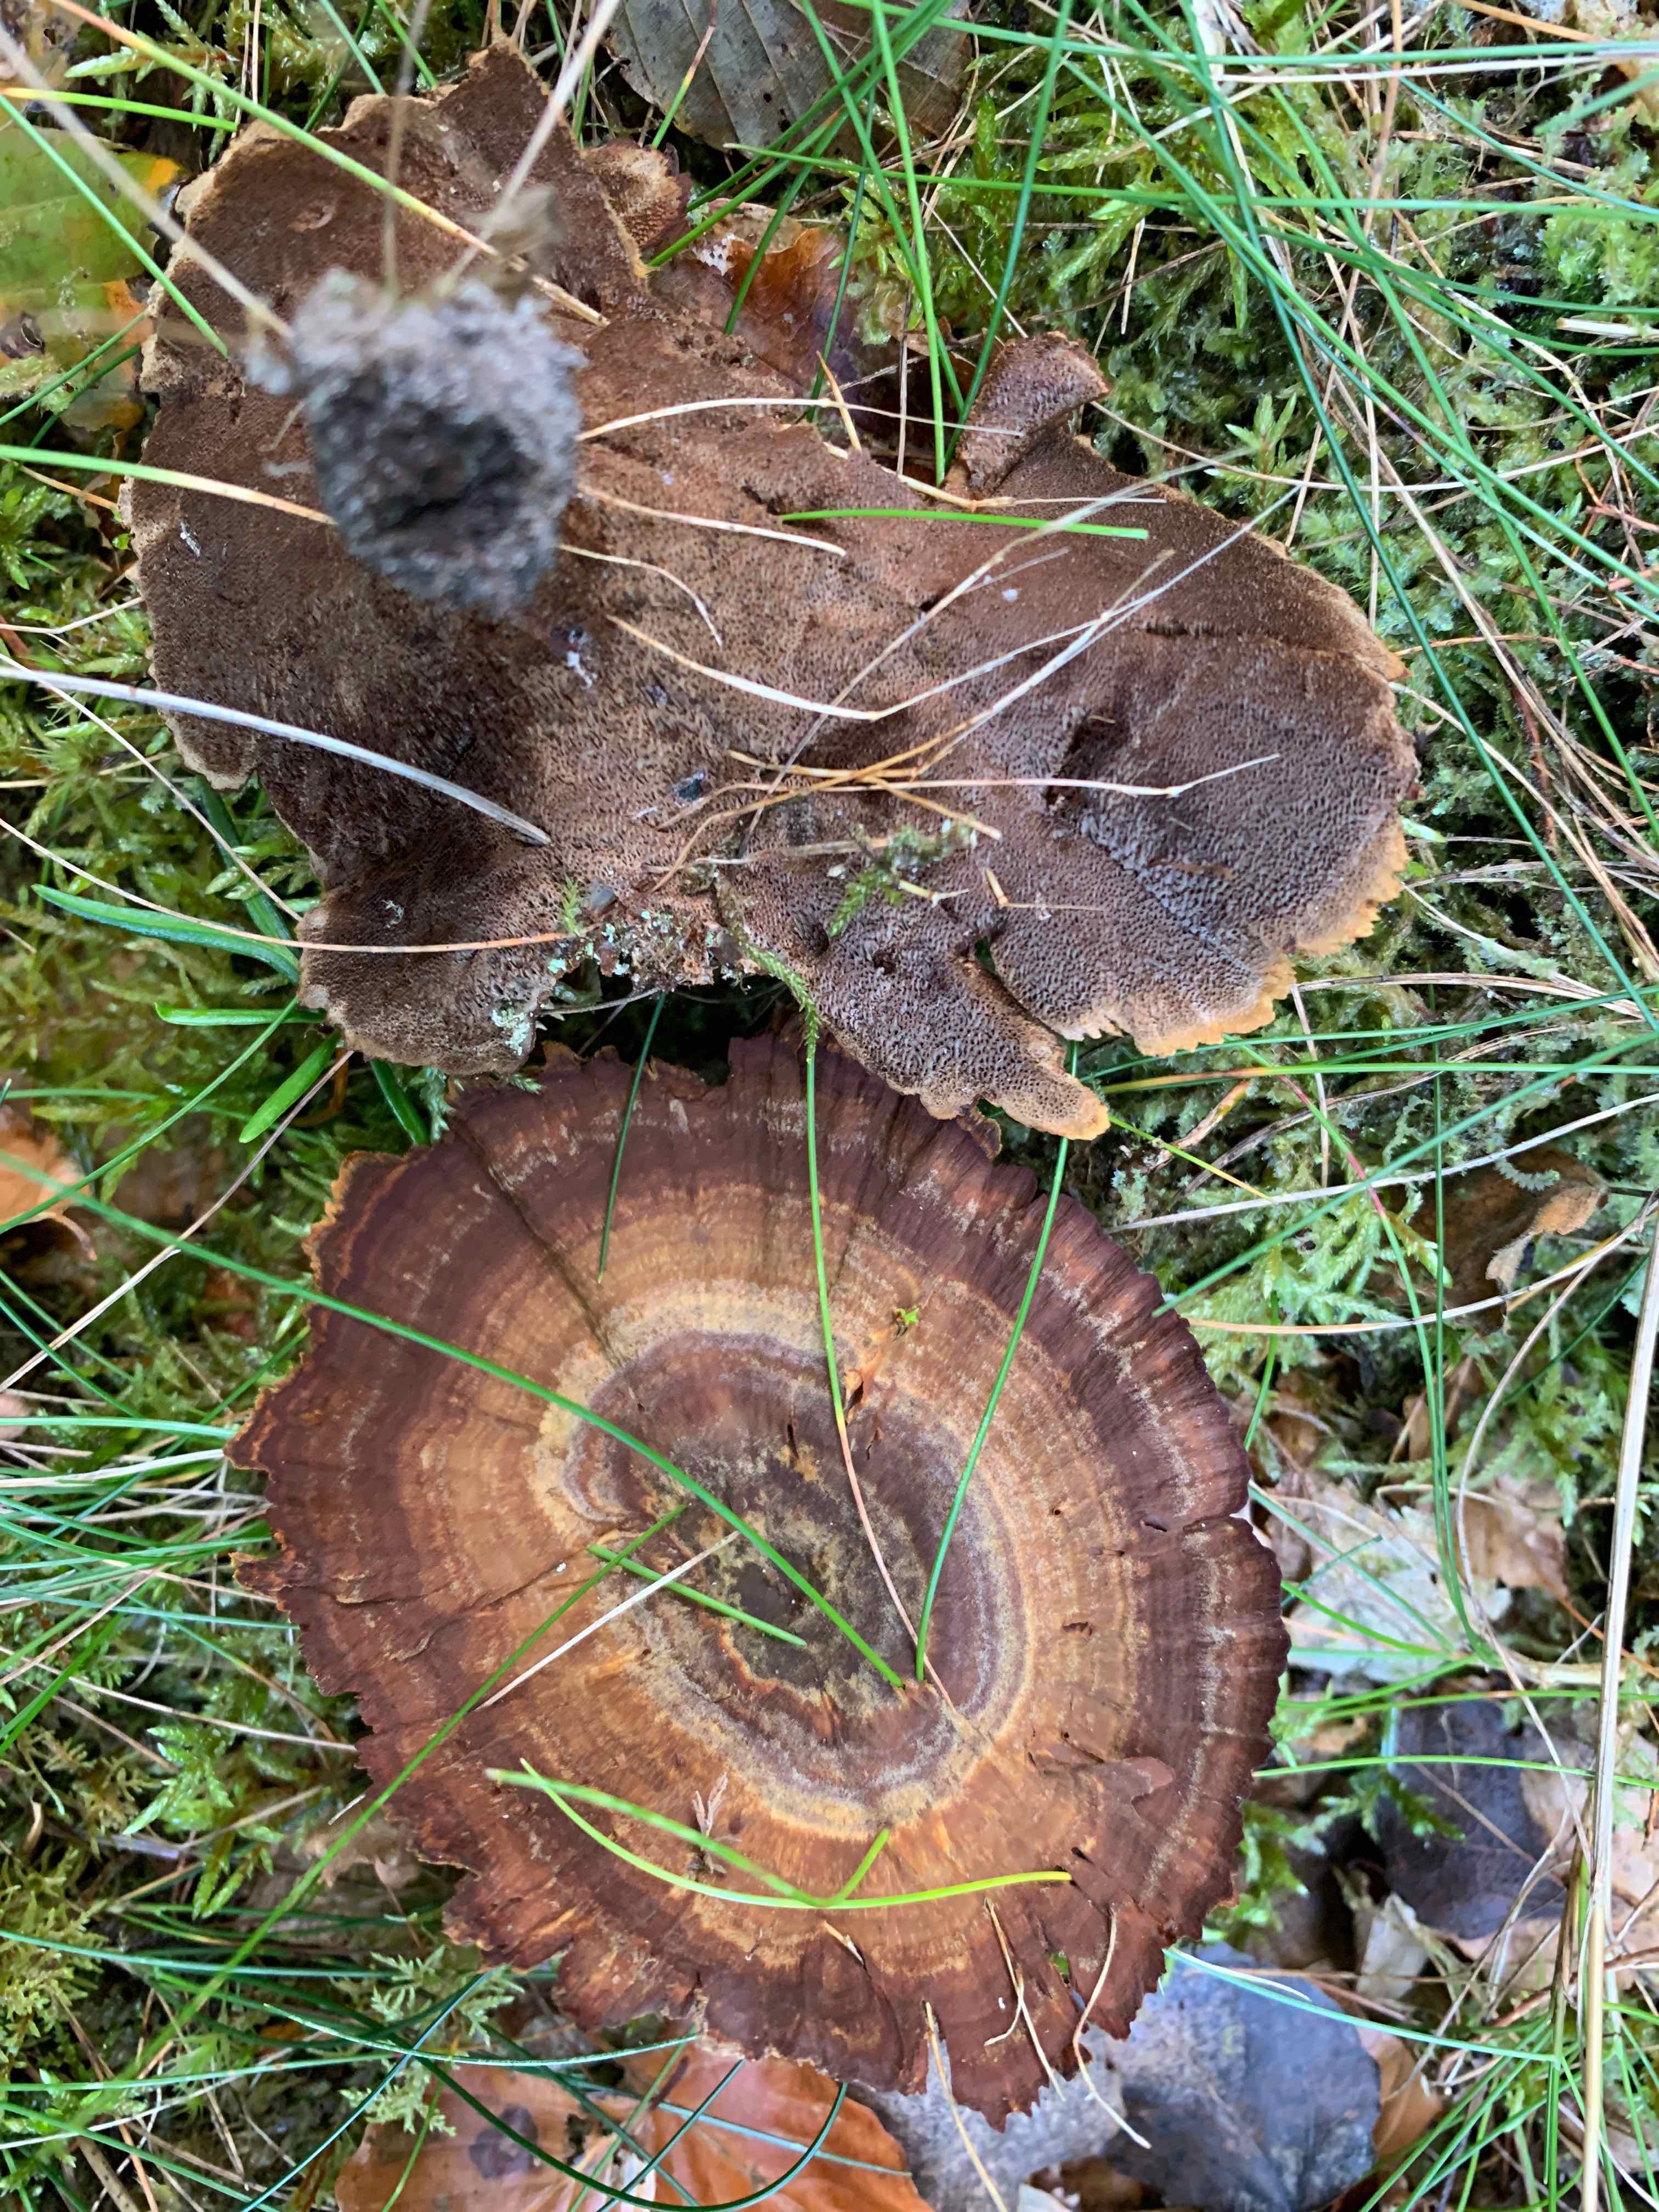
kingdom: Fungi
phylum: Basidiomycota
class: Agaricomycetes
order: Hymenochaetales
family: Hymenochaetaceae
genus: Coltricia
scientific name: Coltricia perennis
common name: almindelig sandporesvamp
